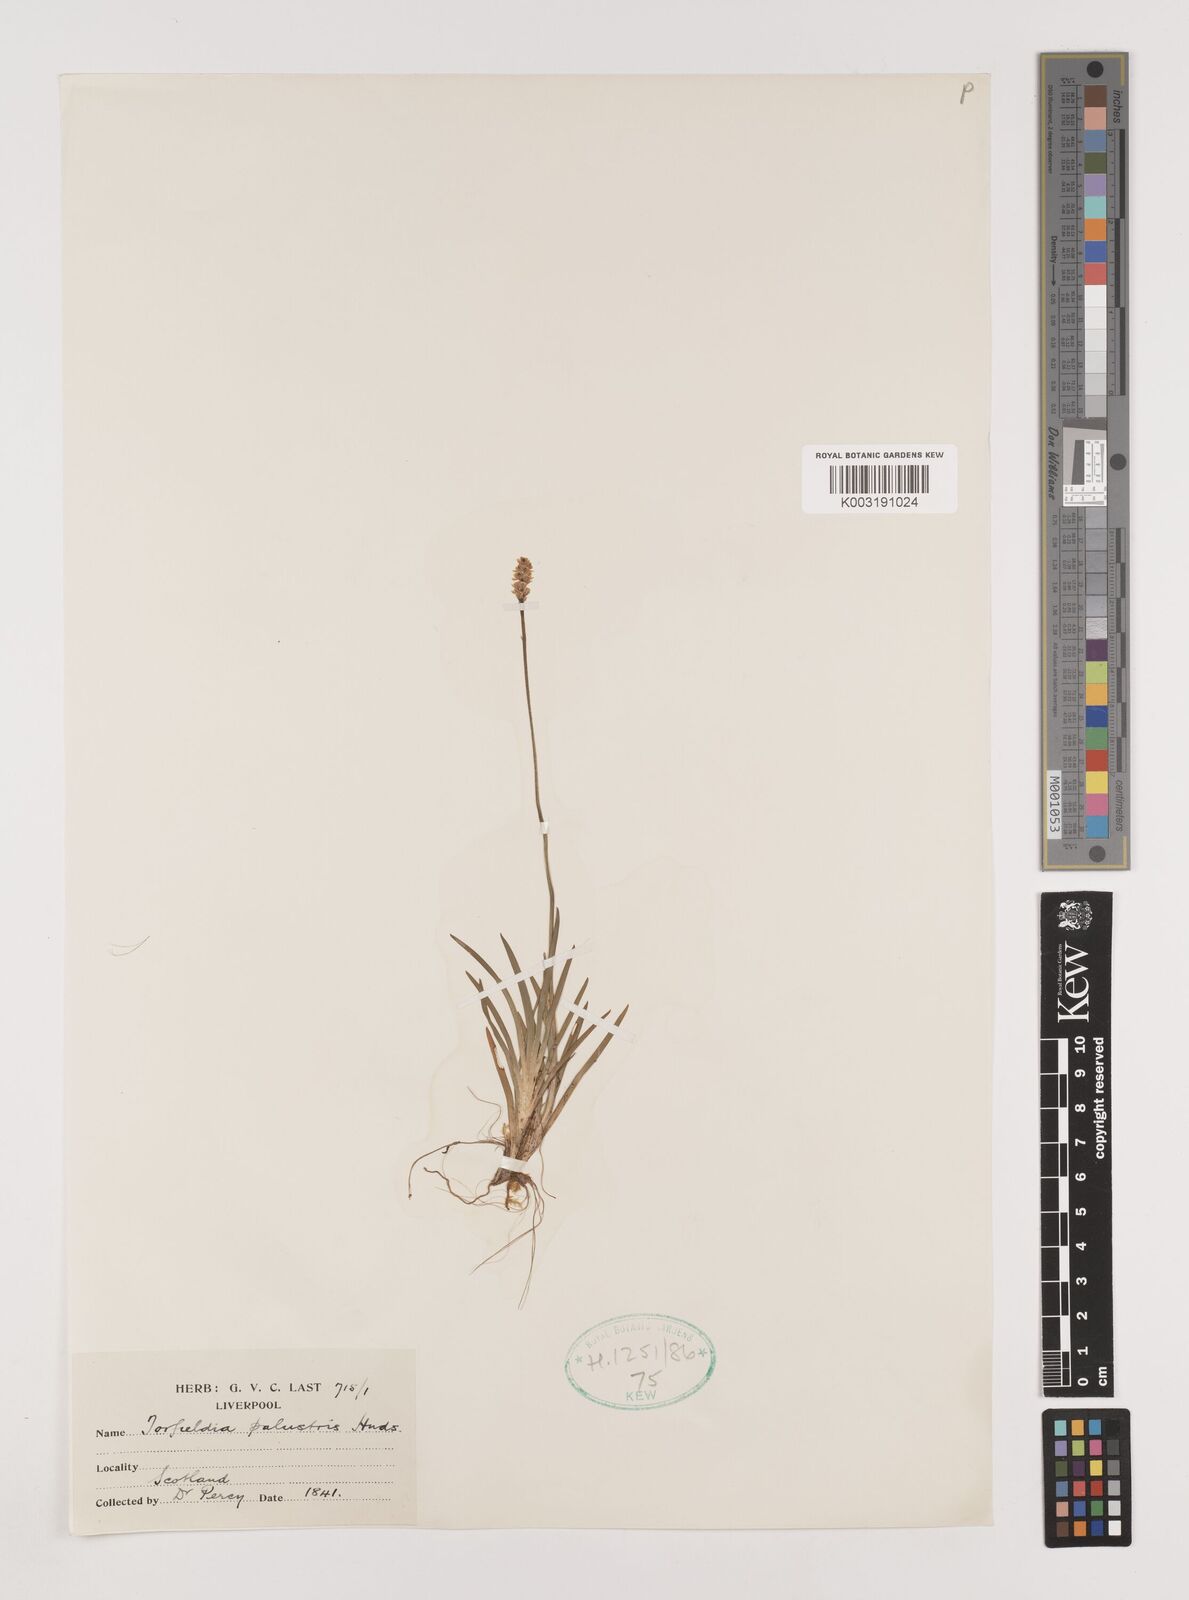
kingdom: Plantae
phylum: Tracheophyta
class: Liliopsida
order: Alismatales
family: Tofieldiaceae
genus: Tofieldia
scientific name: Tofieldia pusilla
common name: Scottish false asphodel
